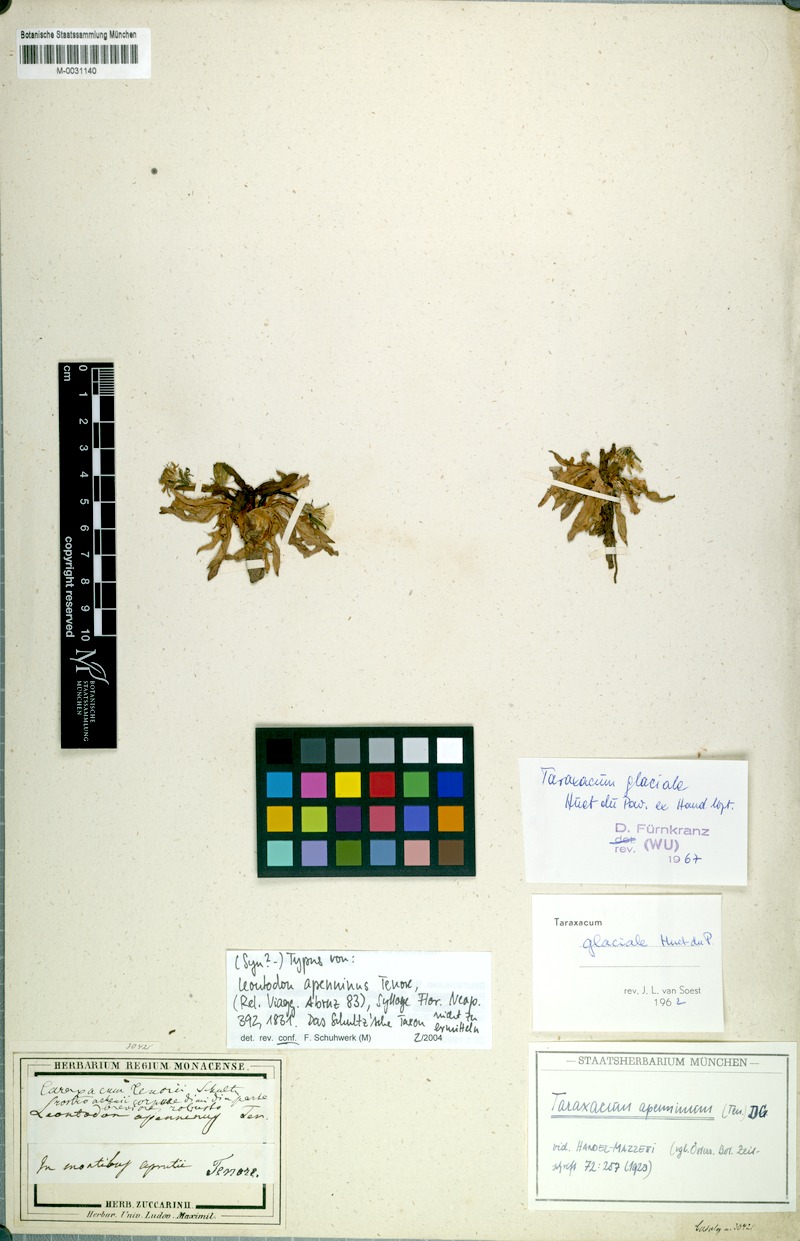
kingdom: Plantae
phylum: Tracheophyta
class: Magnoliopsida
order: Asterales
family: Asteraceae
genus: Taraxacum
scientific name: Taraxacum apenninum
